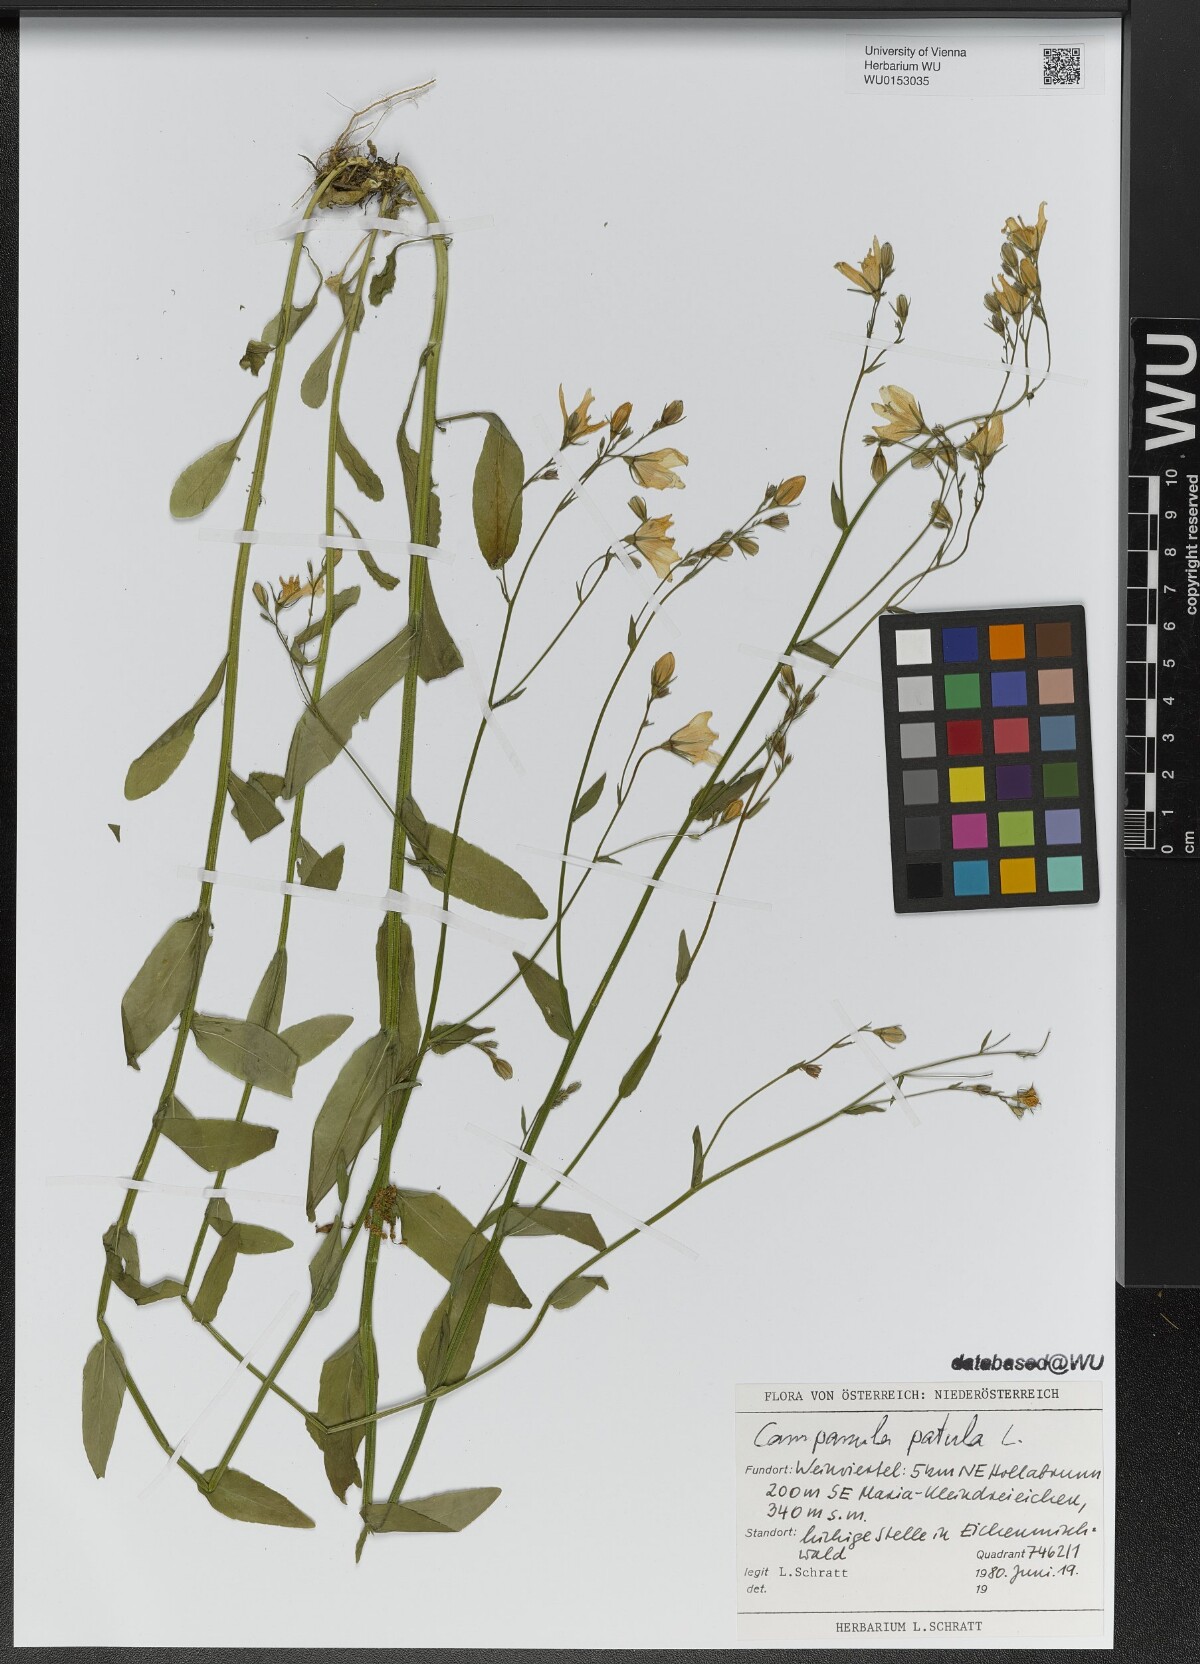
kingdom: Plantae
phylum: Tracheophyta
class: Magnoliopsida
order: Asterales
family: Campanulaceae
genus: Campanula
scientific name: Campanula patula
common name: Spreading bellflower
